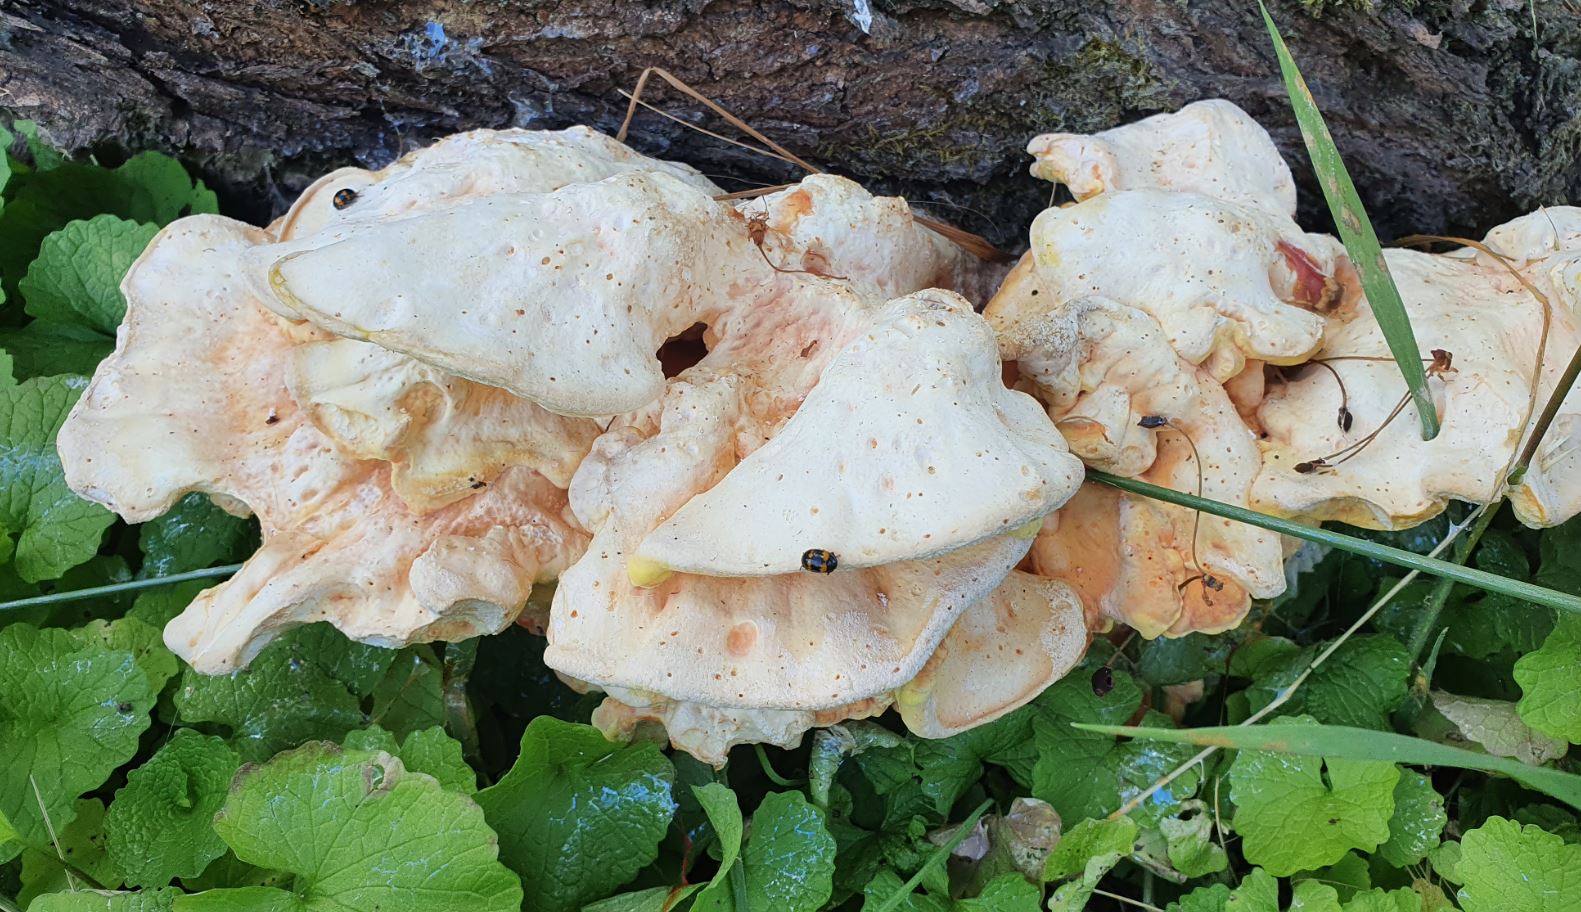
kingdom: Fungi
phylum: Basidiomycota
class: Agaricomycetes
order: Polyporales
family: Laetiporaceae
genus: Laetiporus
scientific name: Laetiporus sulphureus
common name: svovlporesvamp
